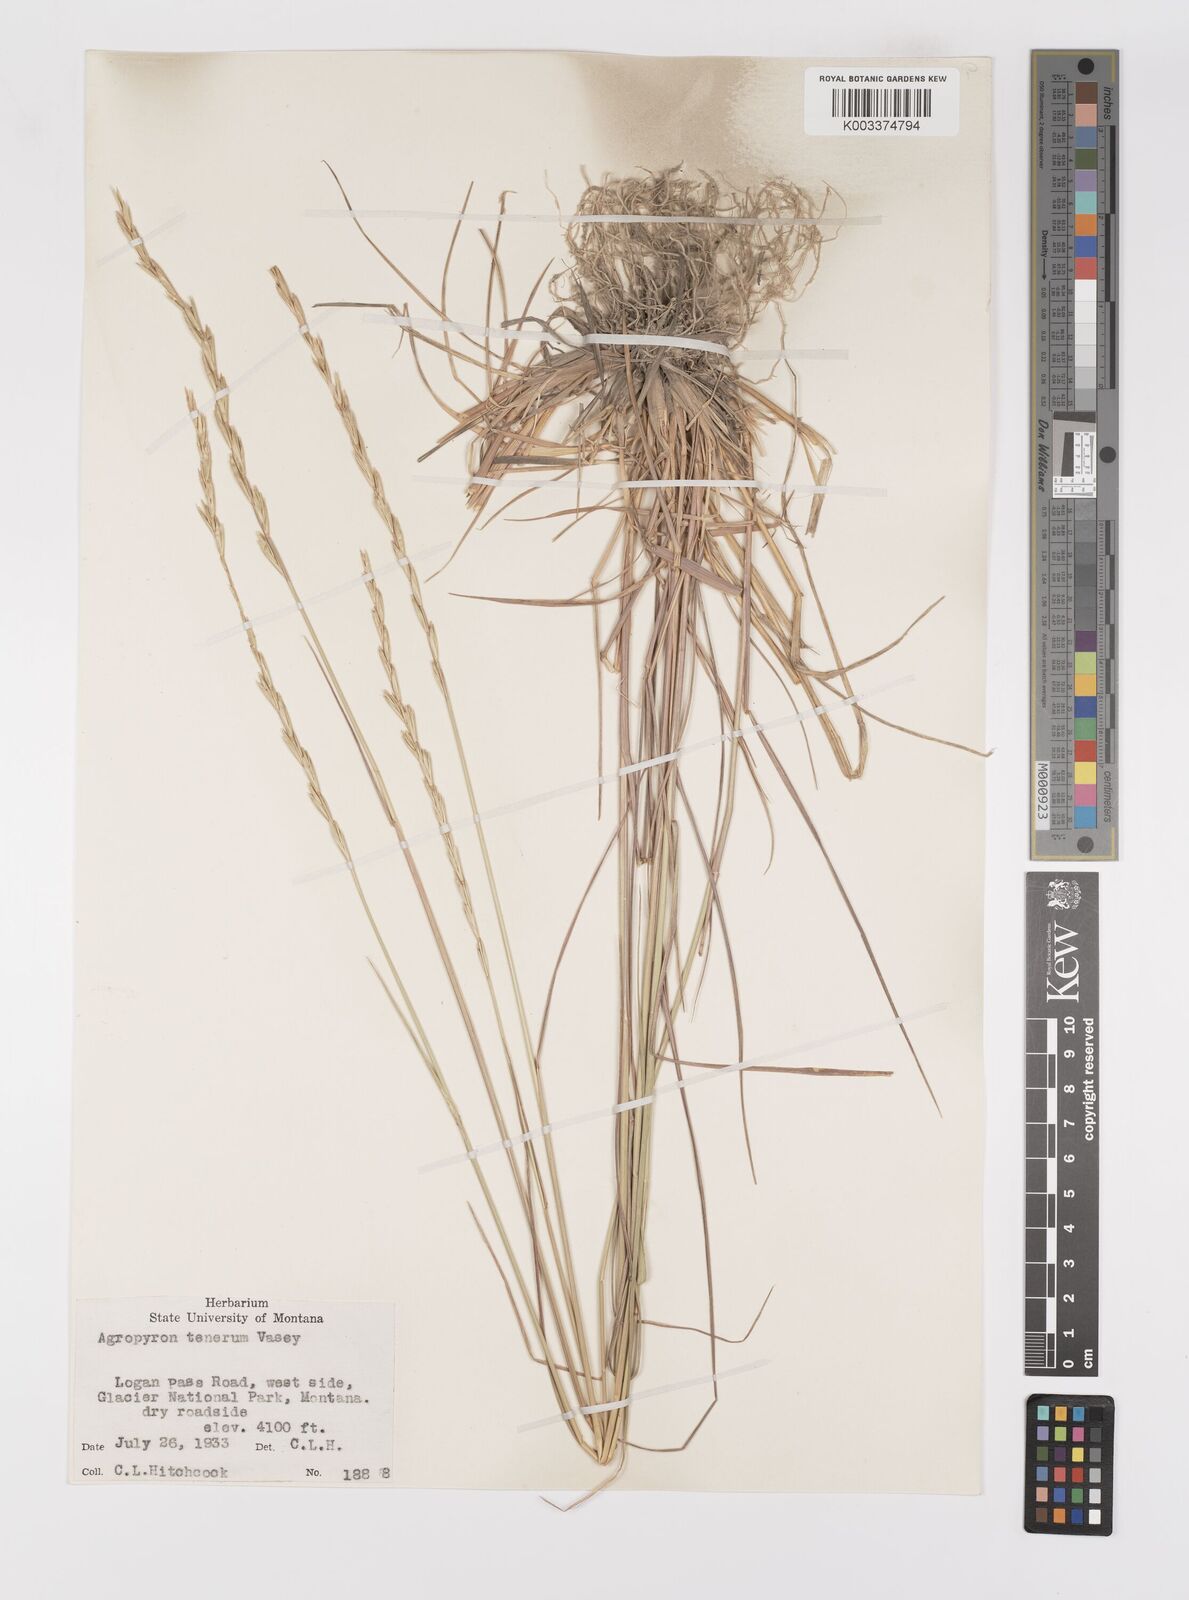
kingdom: Plantae
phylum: Tracheophyta
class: Liliopsida
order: Poales
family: Poaceae
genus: Elymus
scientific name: Elymus violaceus
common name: Arctic wheatgrass
